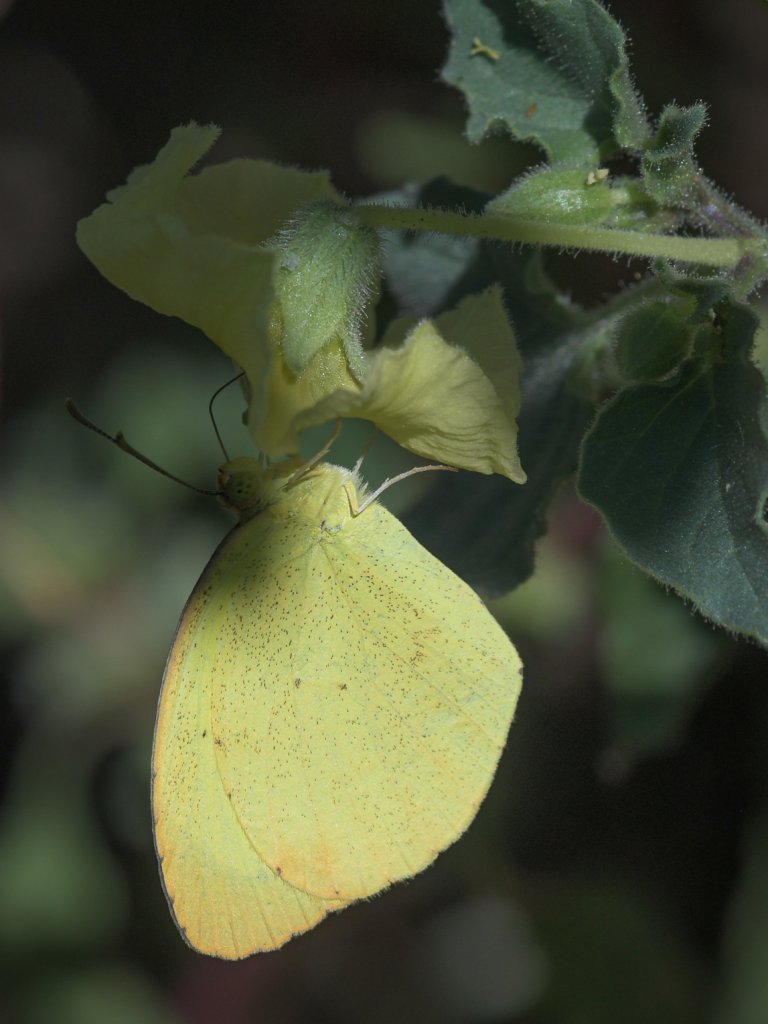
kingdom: Animalia
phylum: Arthropoda
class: Insecta
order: Lepidoptera
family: Pieridae
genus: Pyrisitia
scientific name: Pyrisitia nise
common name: Mimosa Yellow
